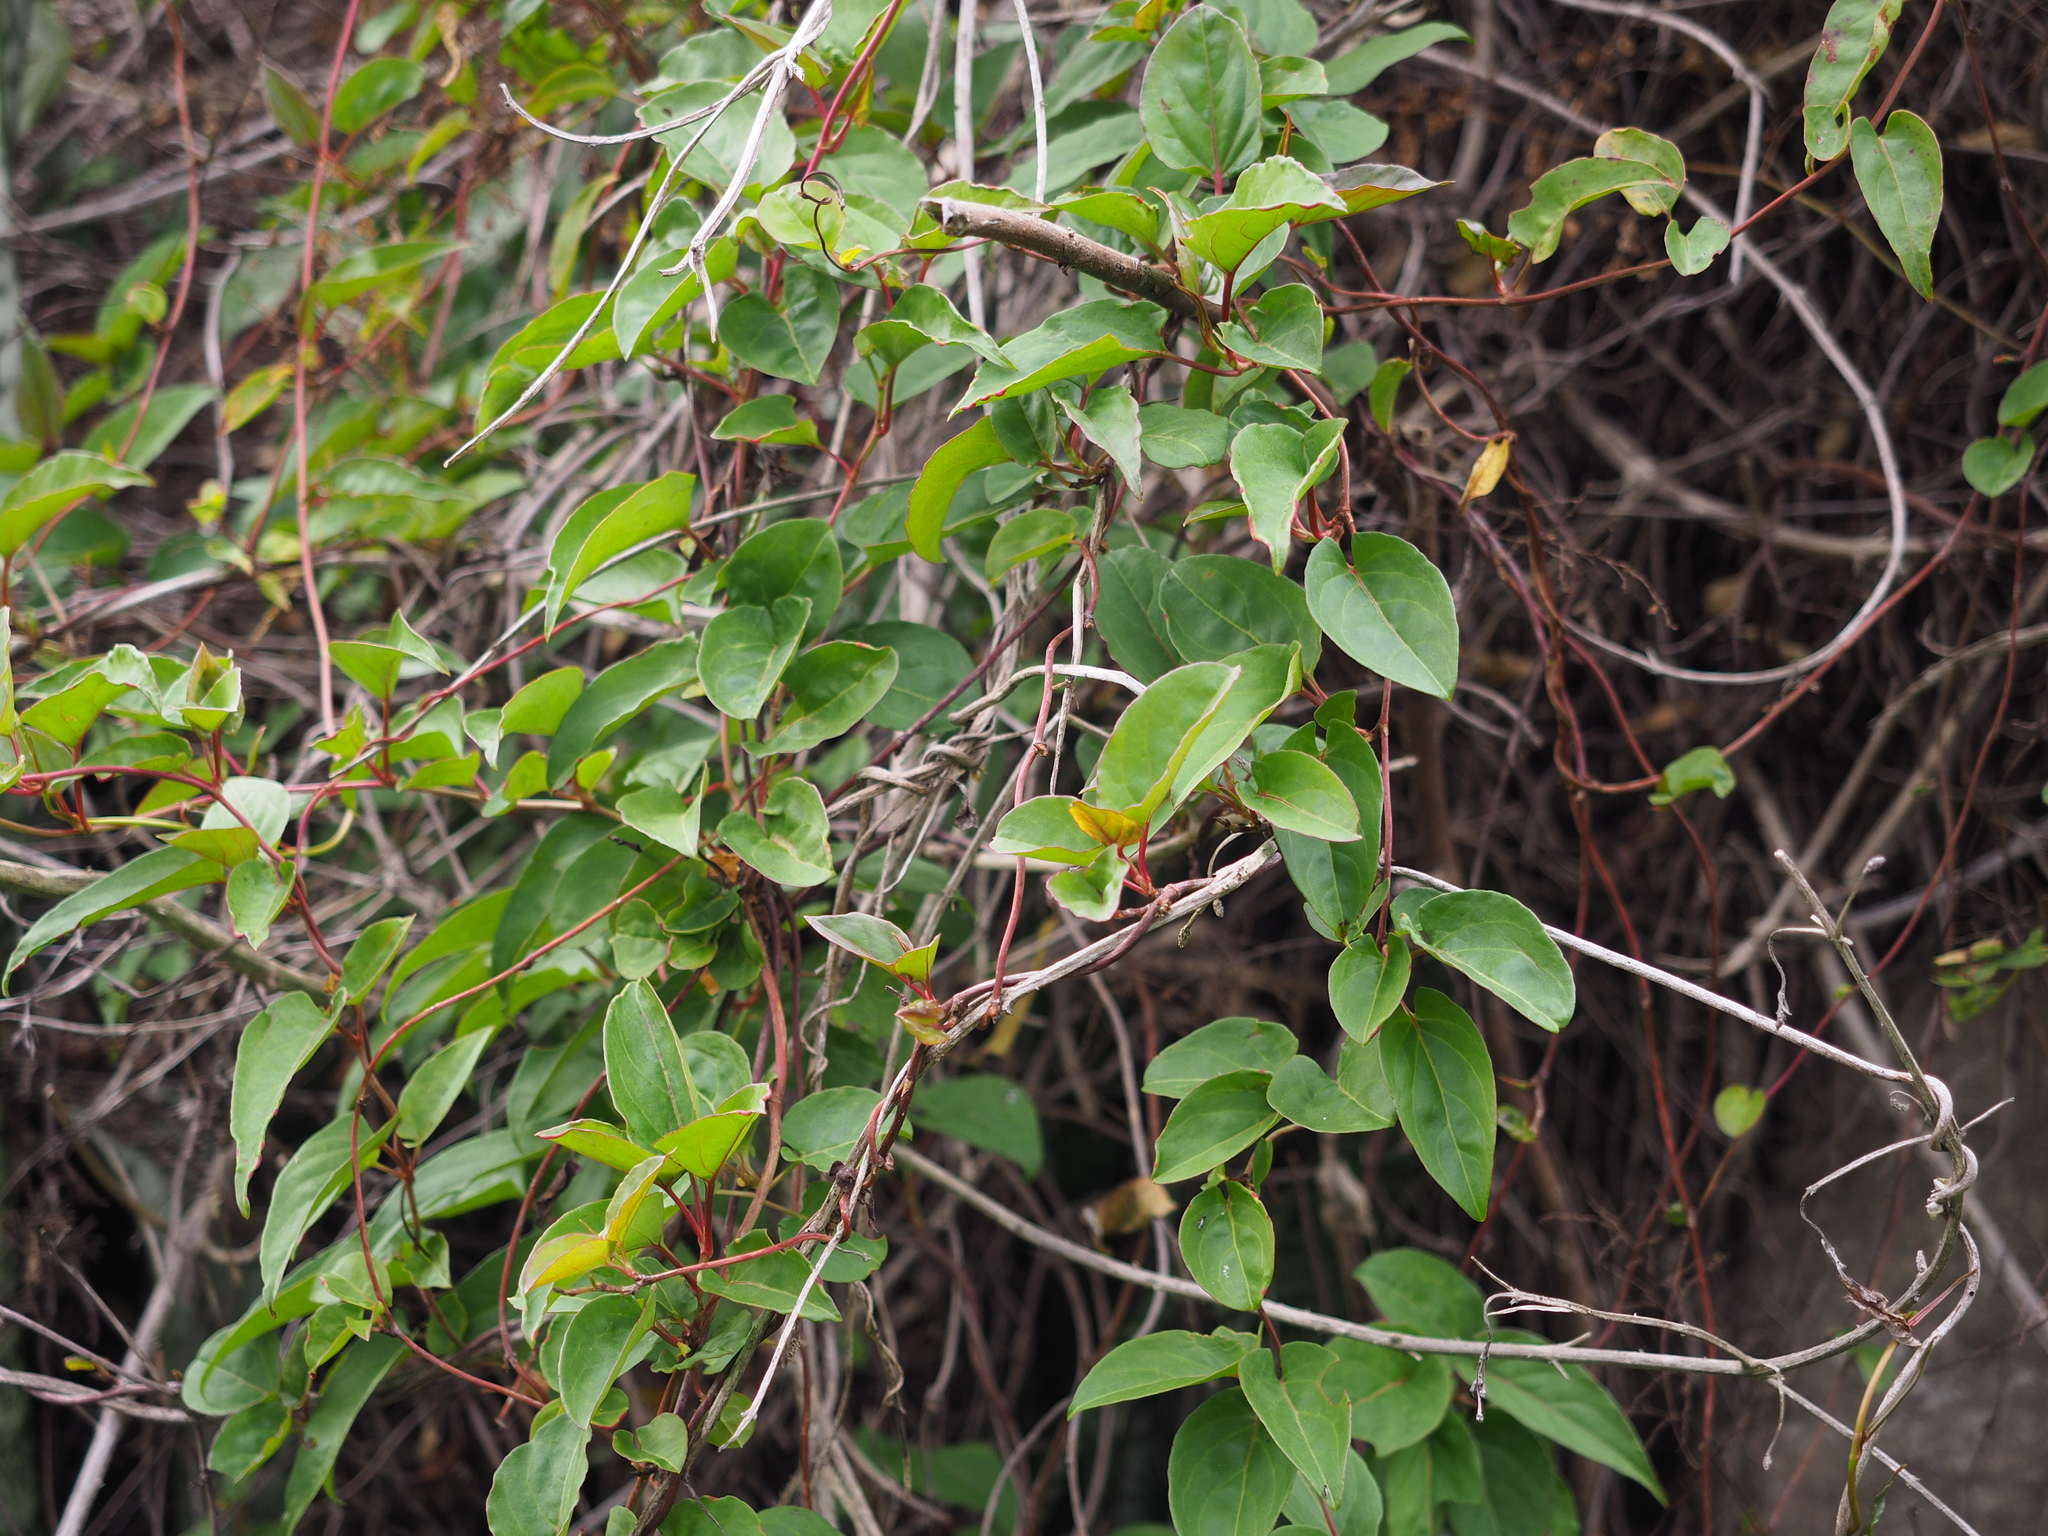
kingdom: Plantae
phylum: Tracheophyta
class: Magnoliopsida
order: Caryophyllales
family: Polygonaceae
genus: Reynoutria
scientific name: Reynoutria multiflora
